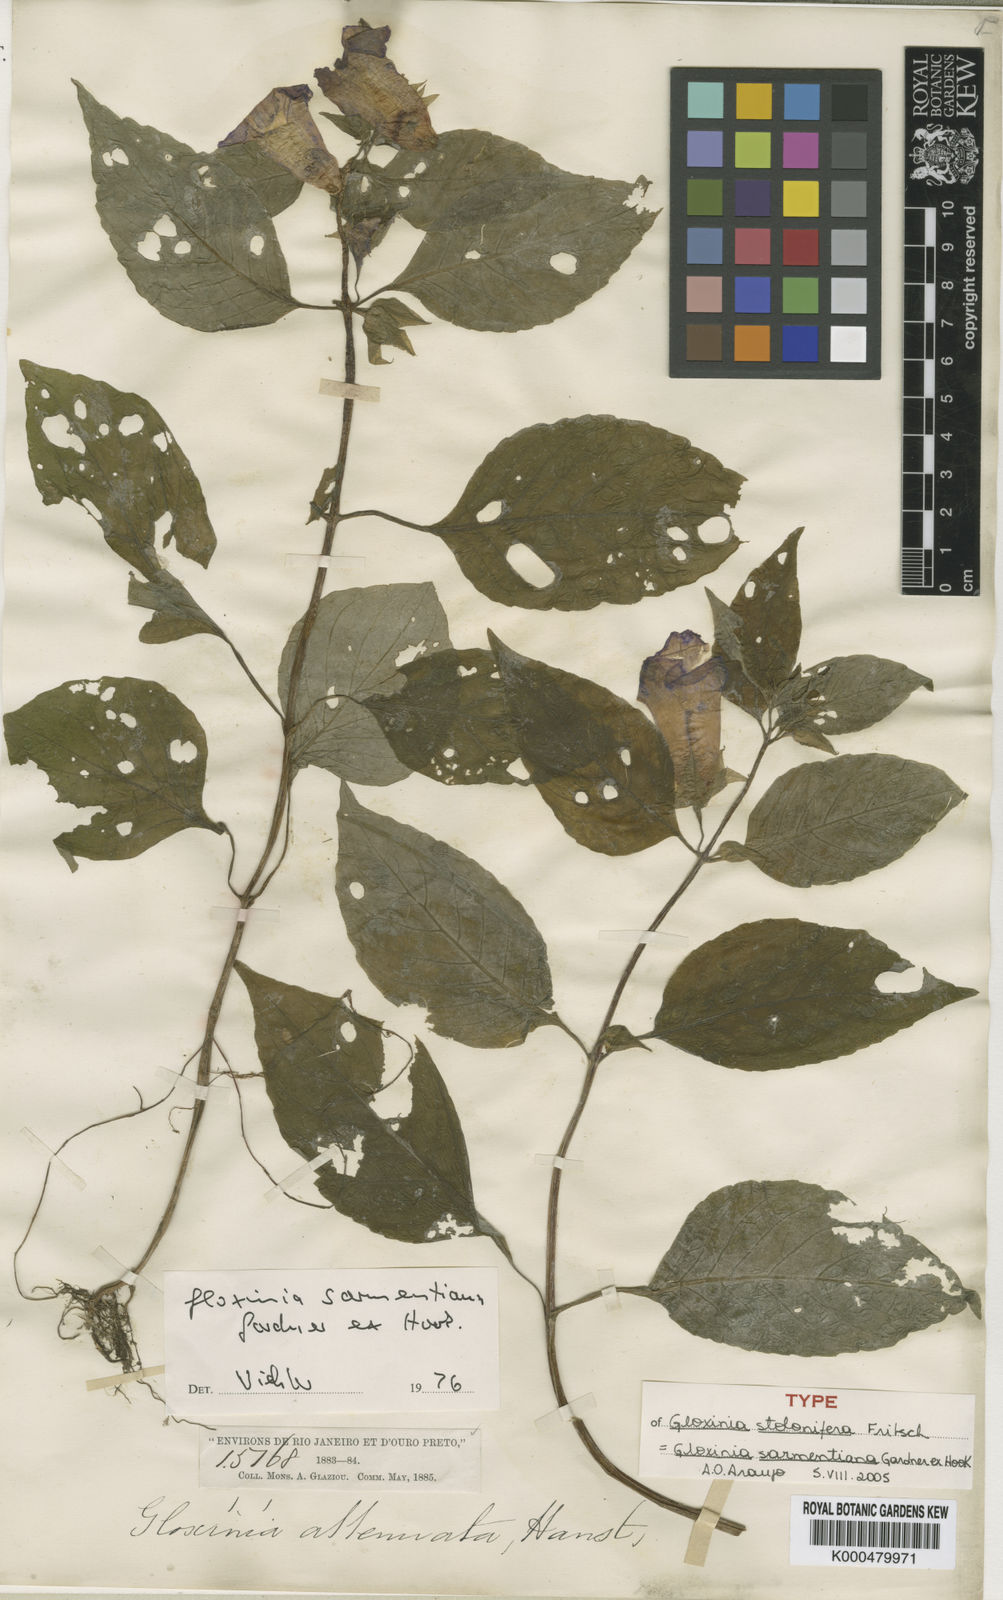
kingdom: Plantae
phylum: Tracheophyta
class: Magnoliopsida
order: Lamiales
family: Gesneriaceae
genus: Sphaerorrhiza
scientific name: Sphaerorrhiza sarmentiana
